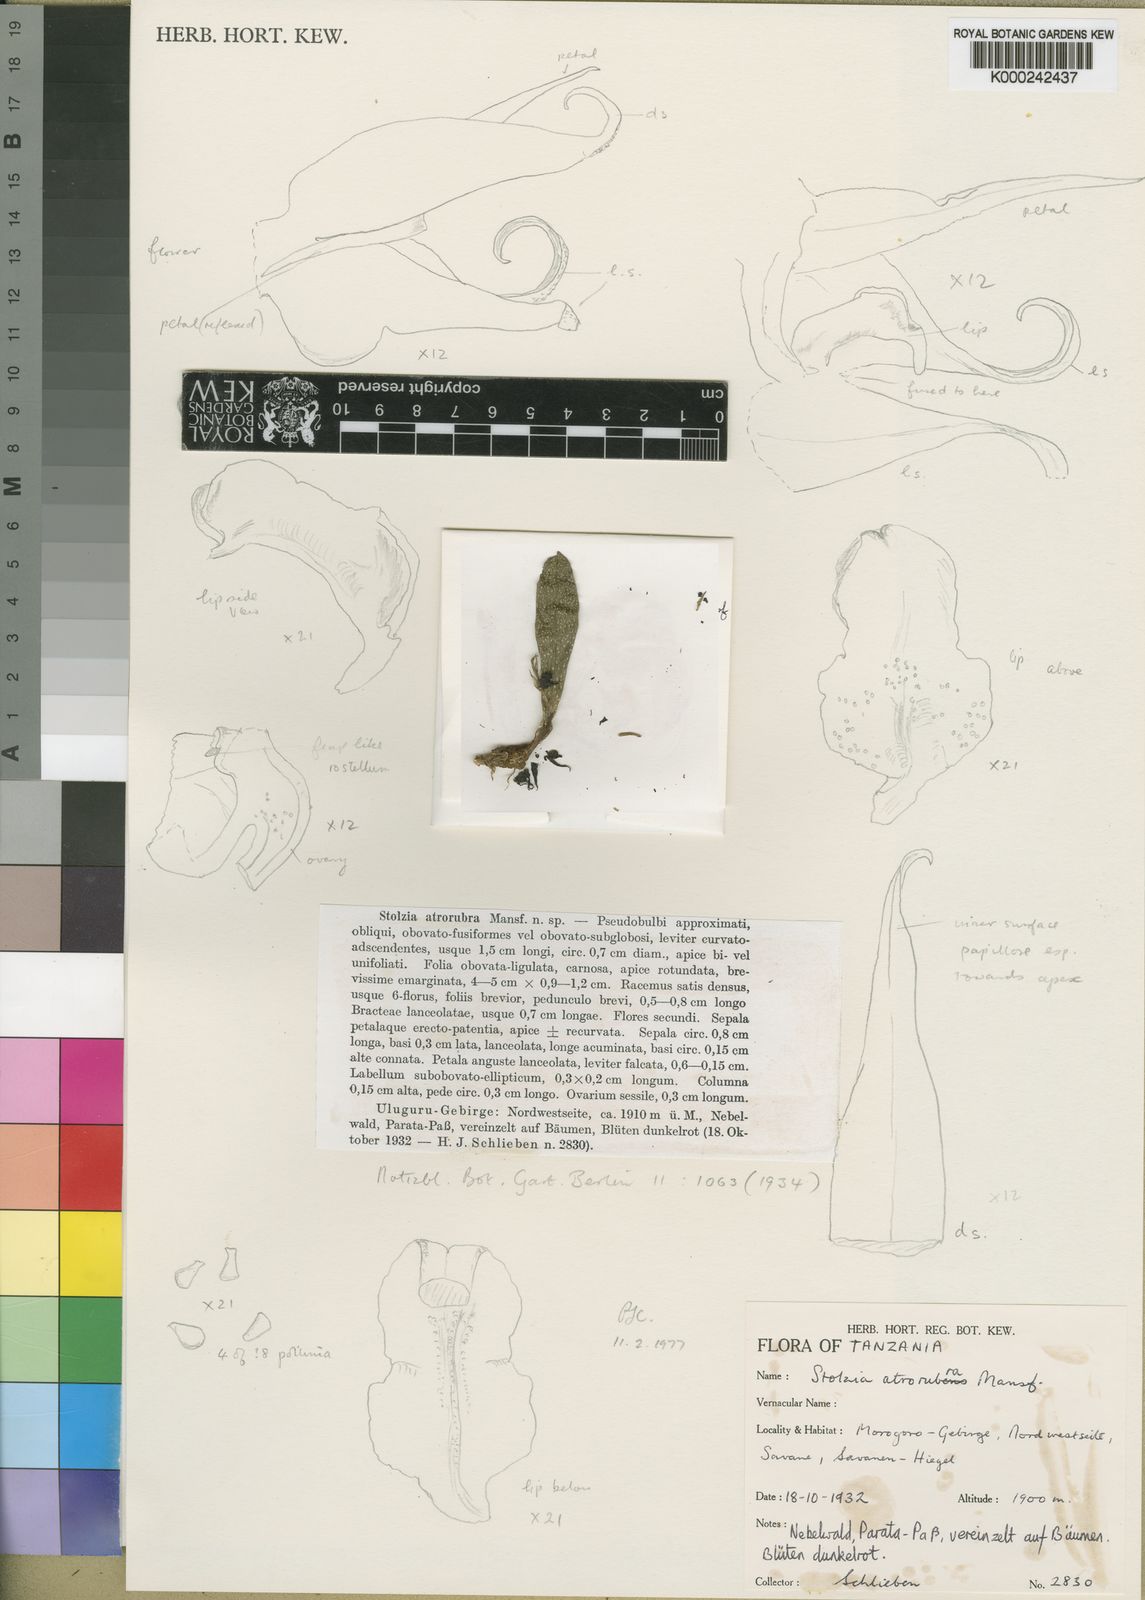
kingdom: Plantae
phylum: Tracheophyta
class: Liliopsida
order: Asparagales
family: Orchidaceae
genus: Porpax
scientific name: Porpax atrorubra
